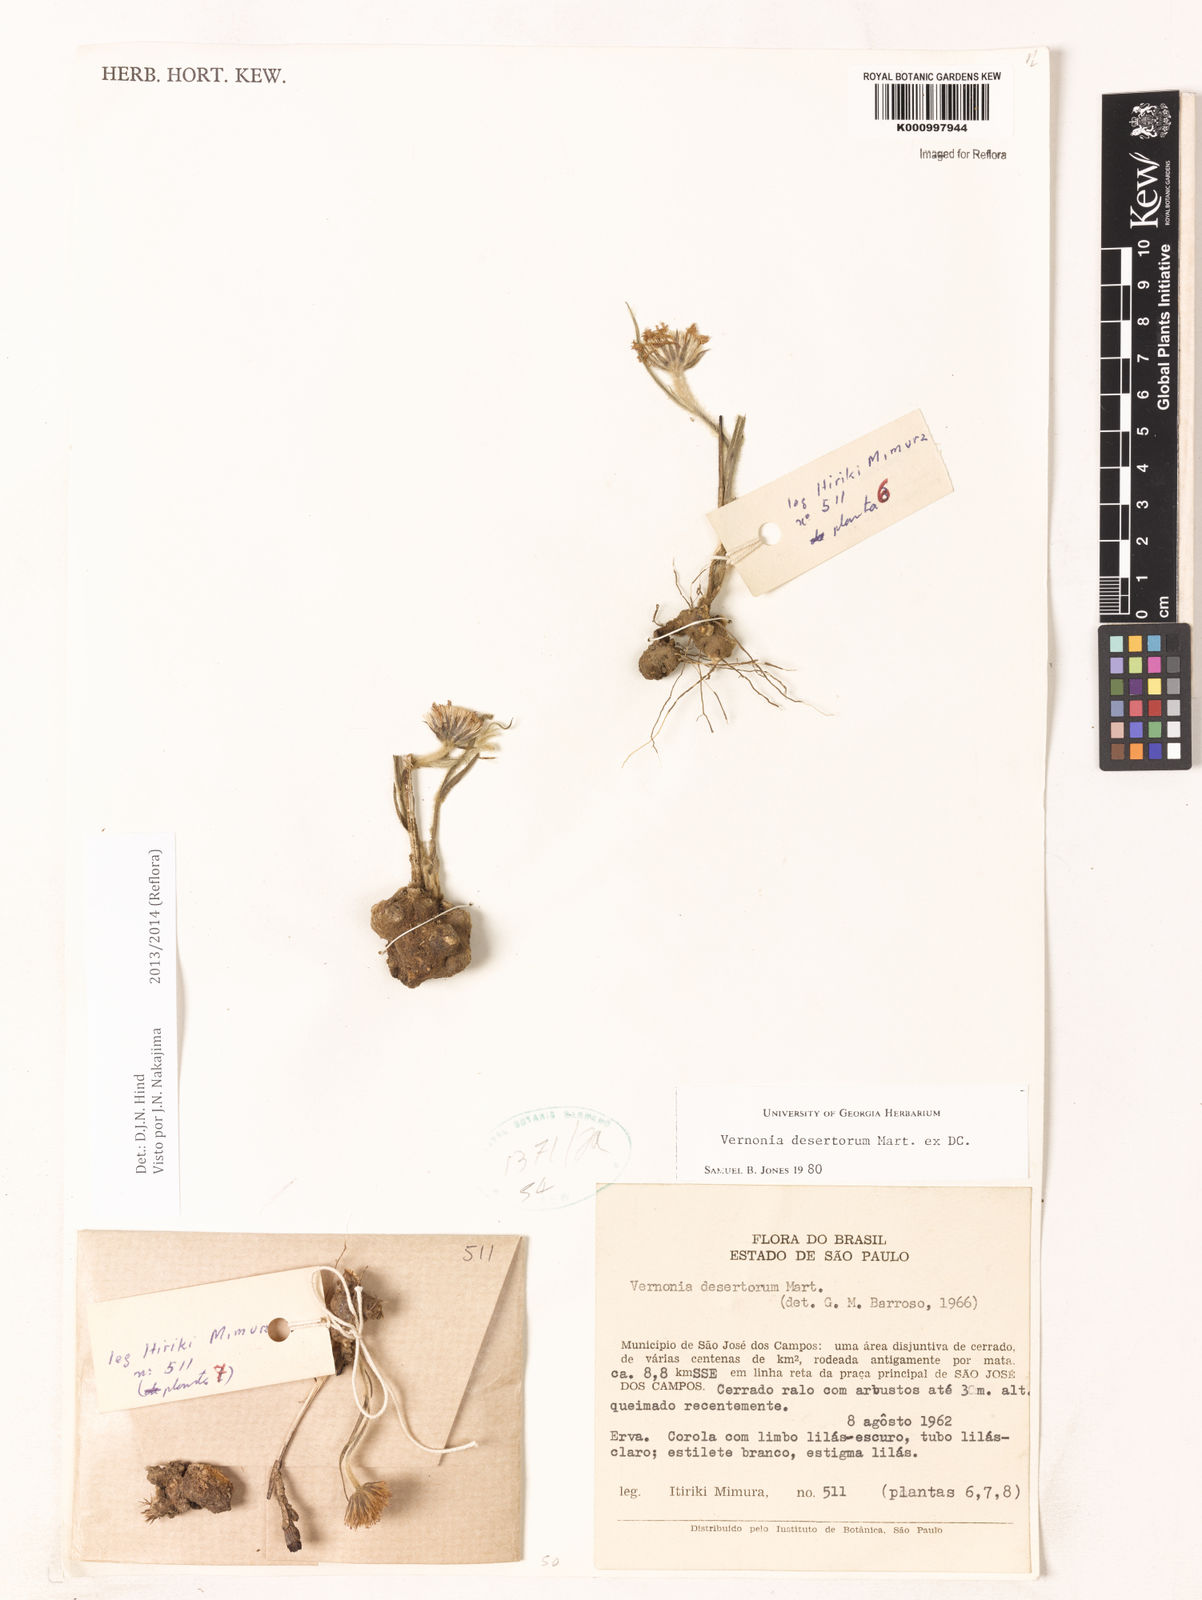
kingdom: Plantae
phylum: Tracheophyta
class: Magnoliopsida
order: Asterales
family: Asteraceae
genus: Chrysolaena
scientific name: Chrysolaena desertorum
